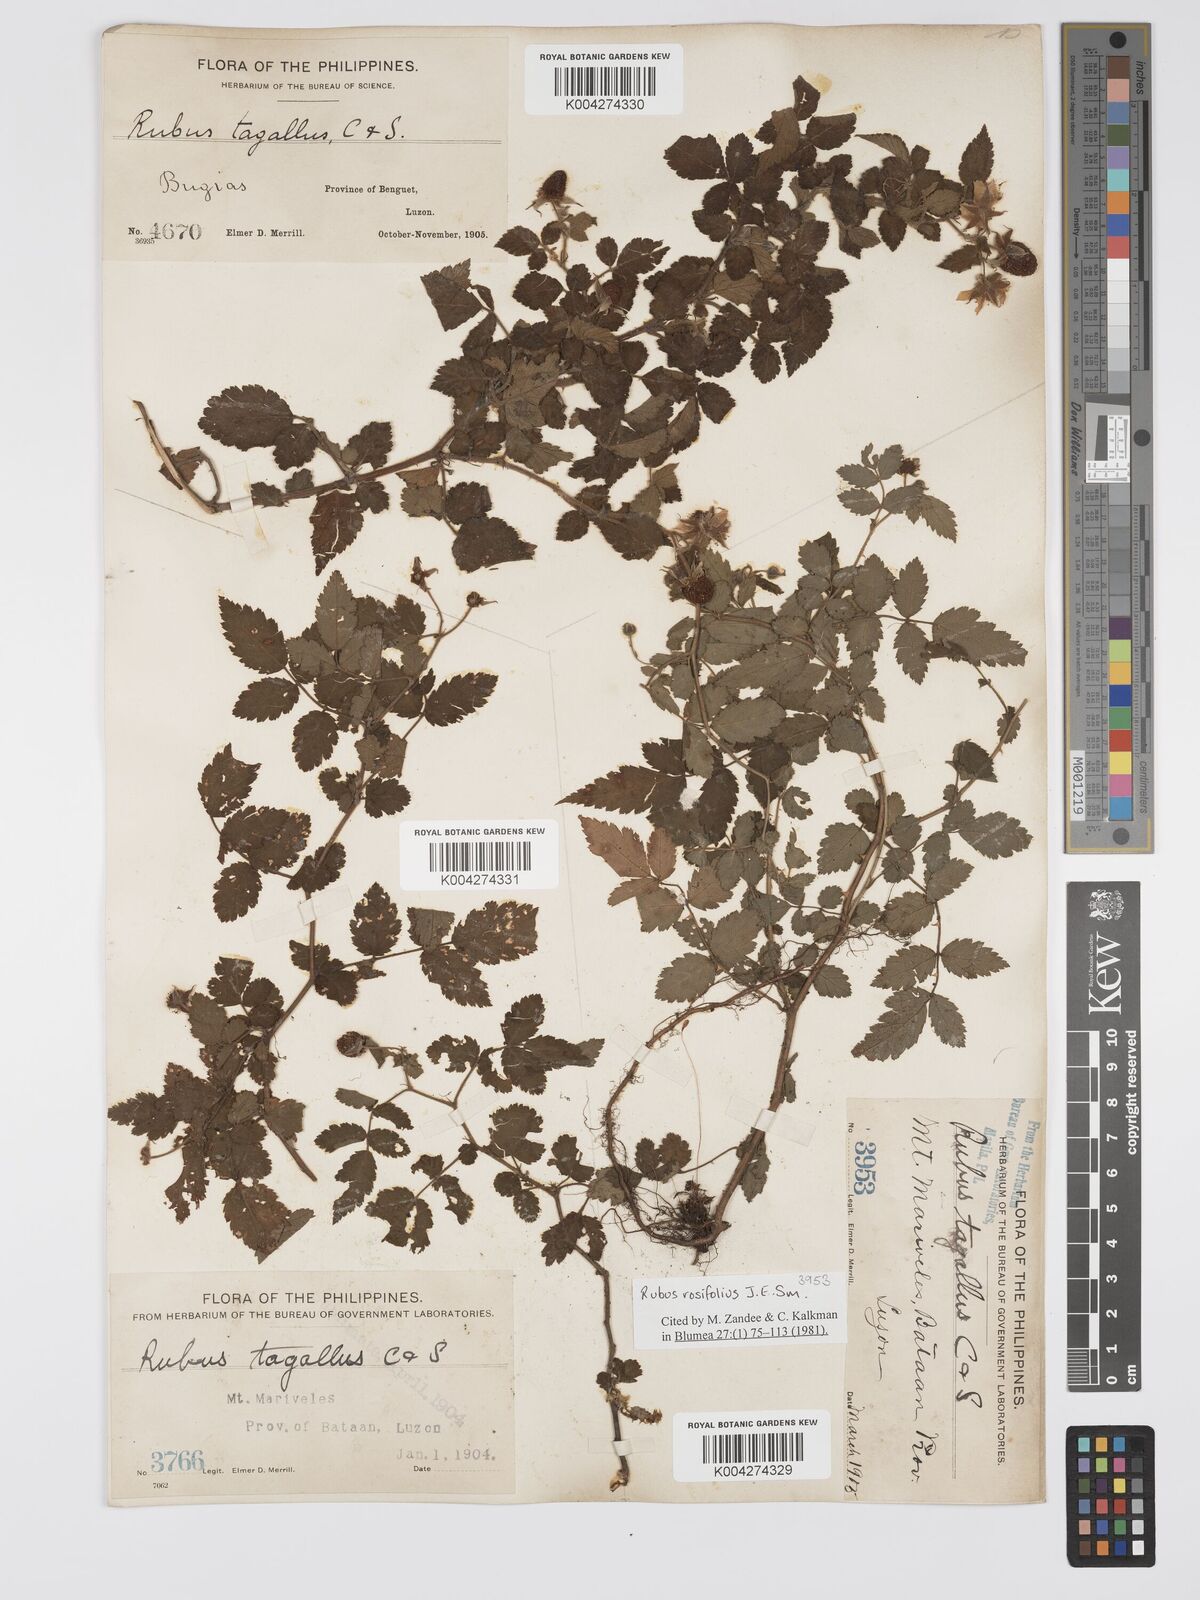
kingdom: Plantae
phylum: Tracheophyta
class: Magnoliopsida
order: Rosales
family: Rosaceae
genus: Rubus
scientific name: Rubus
